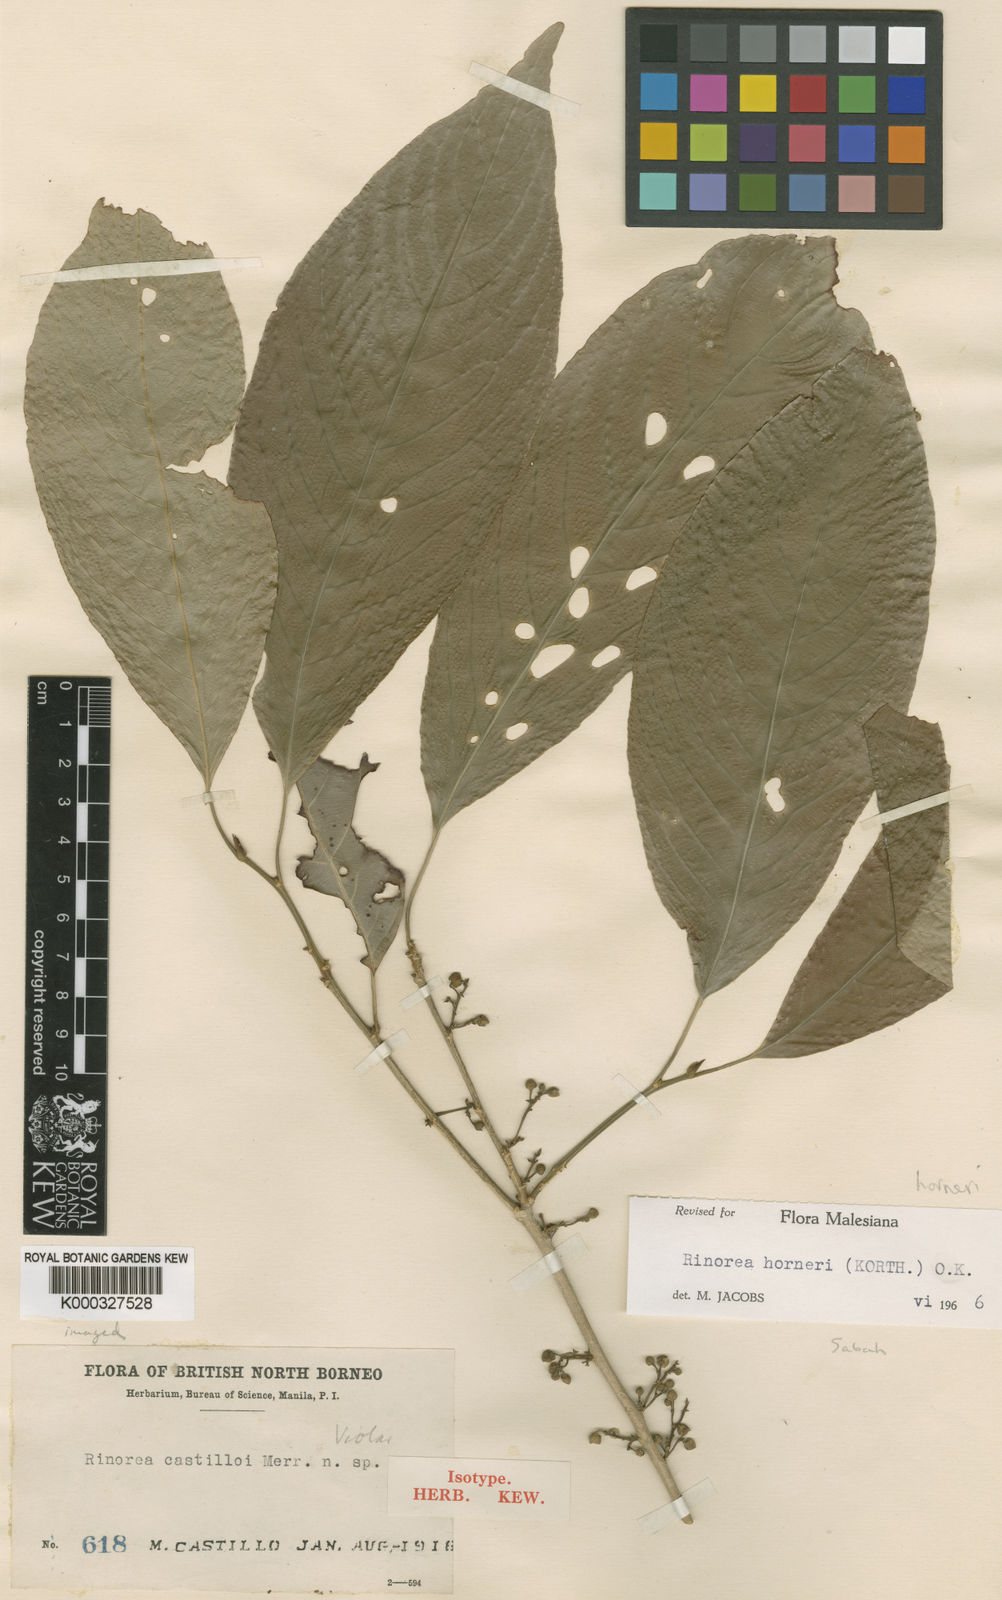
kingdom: Plantae
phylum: Tracheophyta
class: Magnoliopsida
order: Malpighiales
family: Violaceae
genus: Rinorea
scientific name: Rinorea horneri
